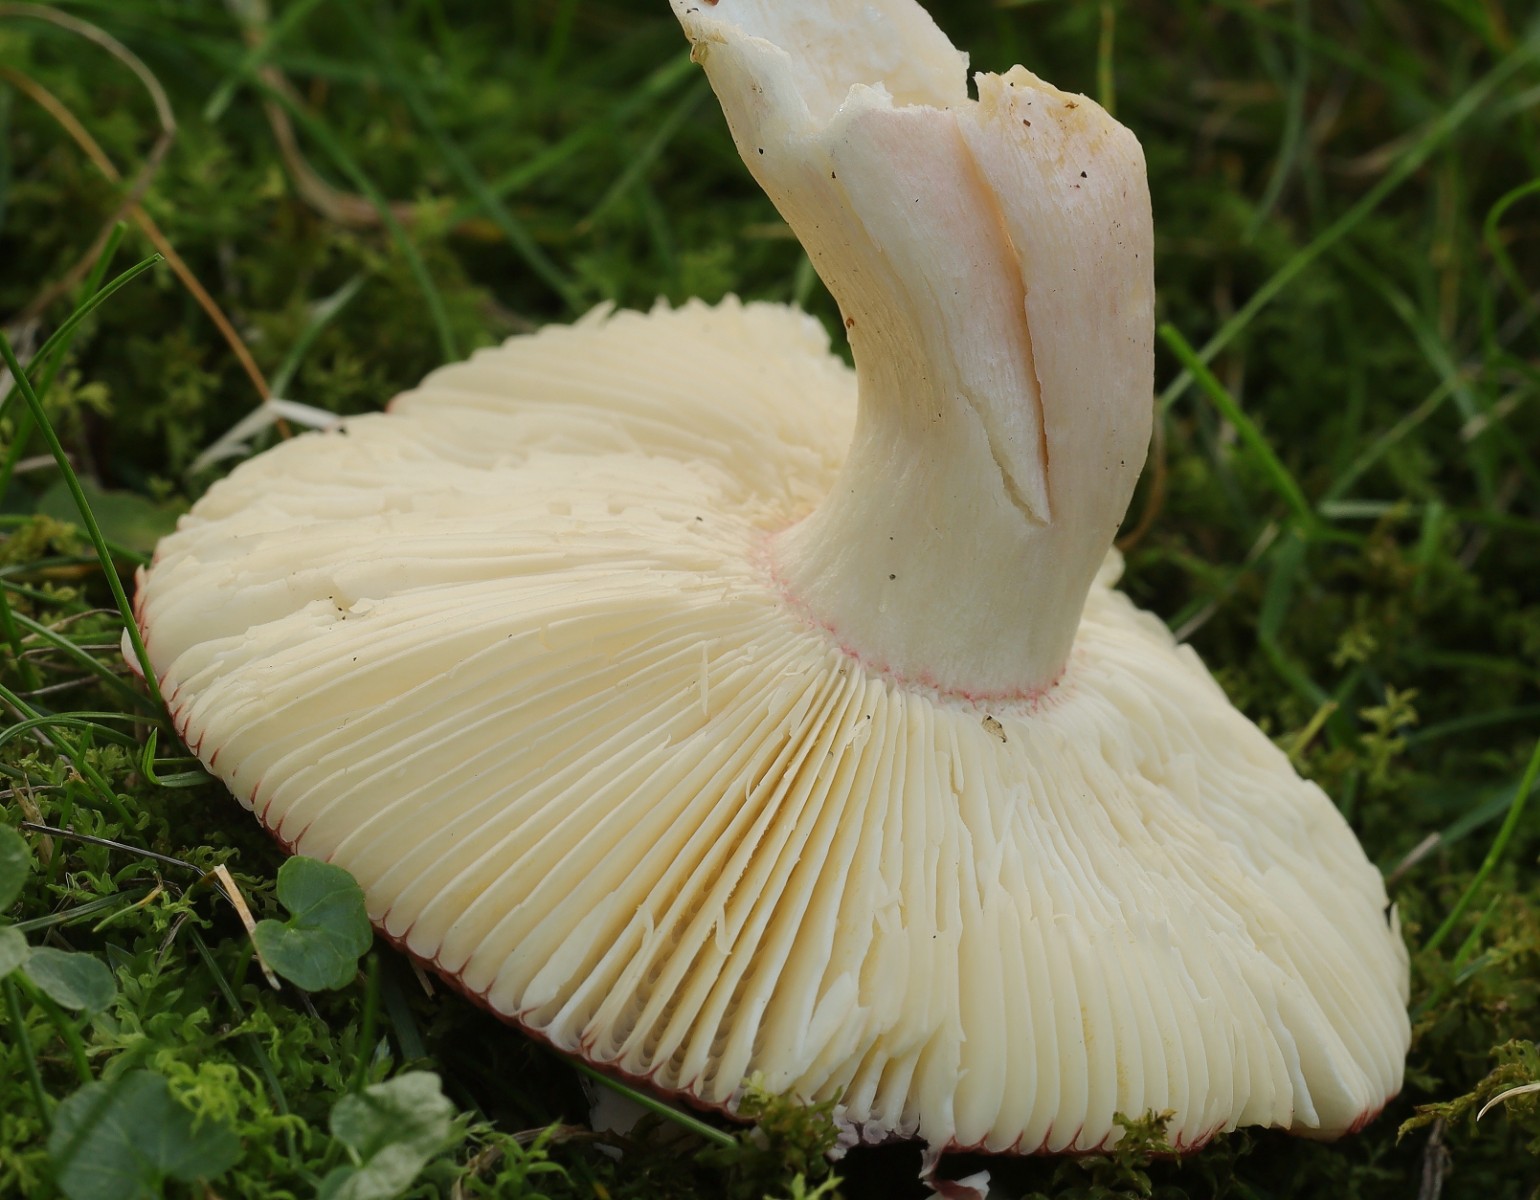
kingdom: Fungi
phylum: Basidiomycota
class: Agaricomycetes
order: Russulales
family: Russulaceae
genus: Russula
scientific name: Russula
